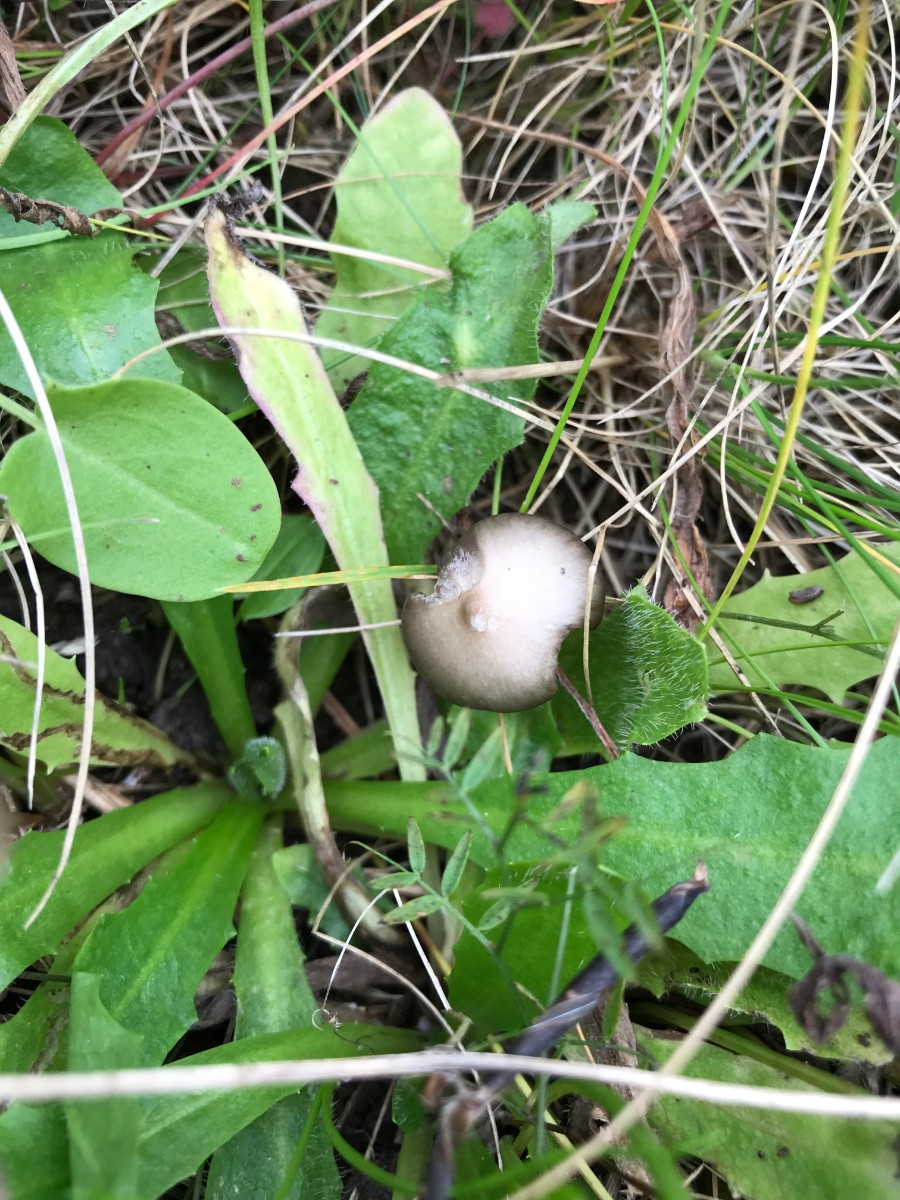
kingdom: Fungi
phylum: Basidiomycota
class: Agaricomycetes
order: Agaricales
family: Entolomataceae
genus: Entoloma
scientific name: Entoloma
